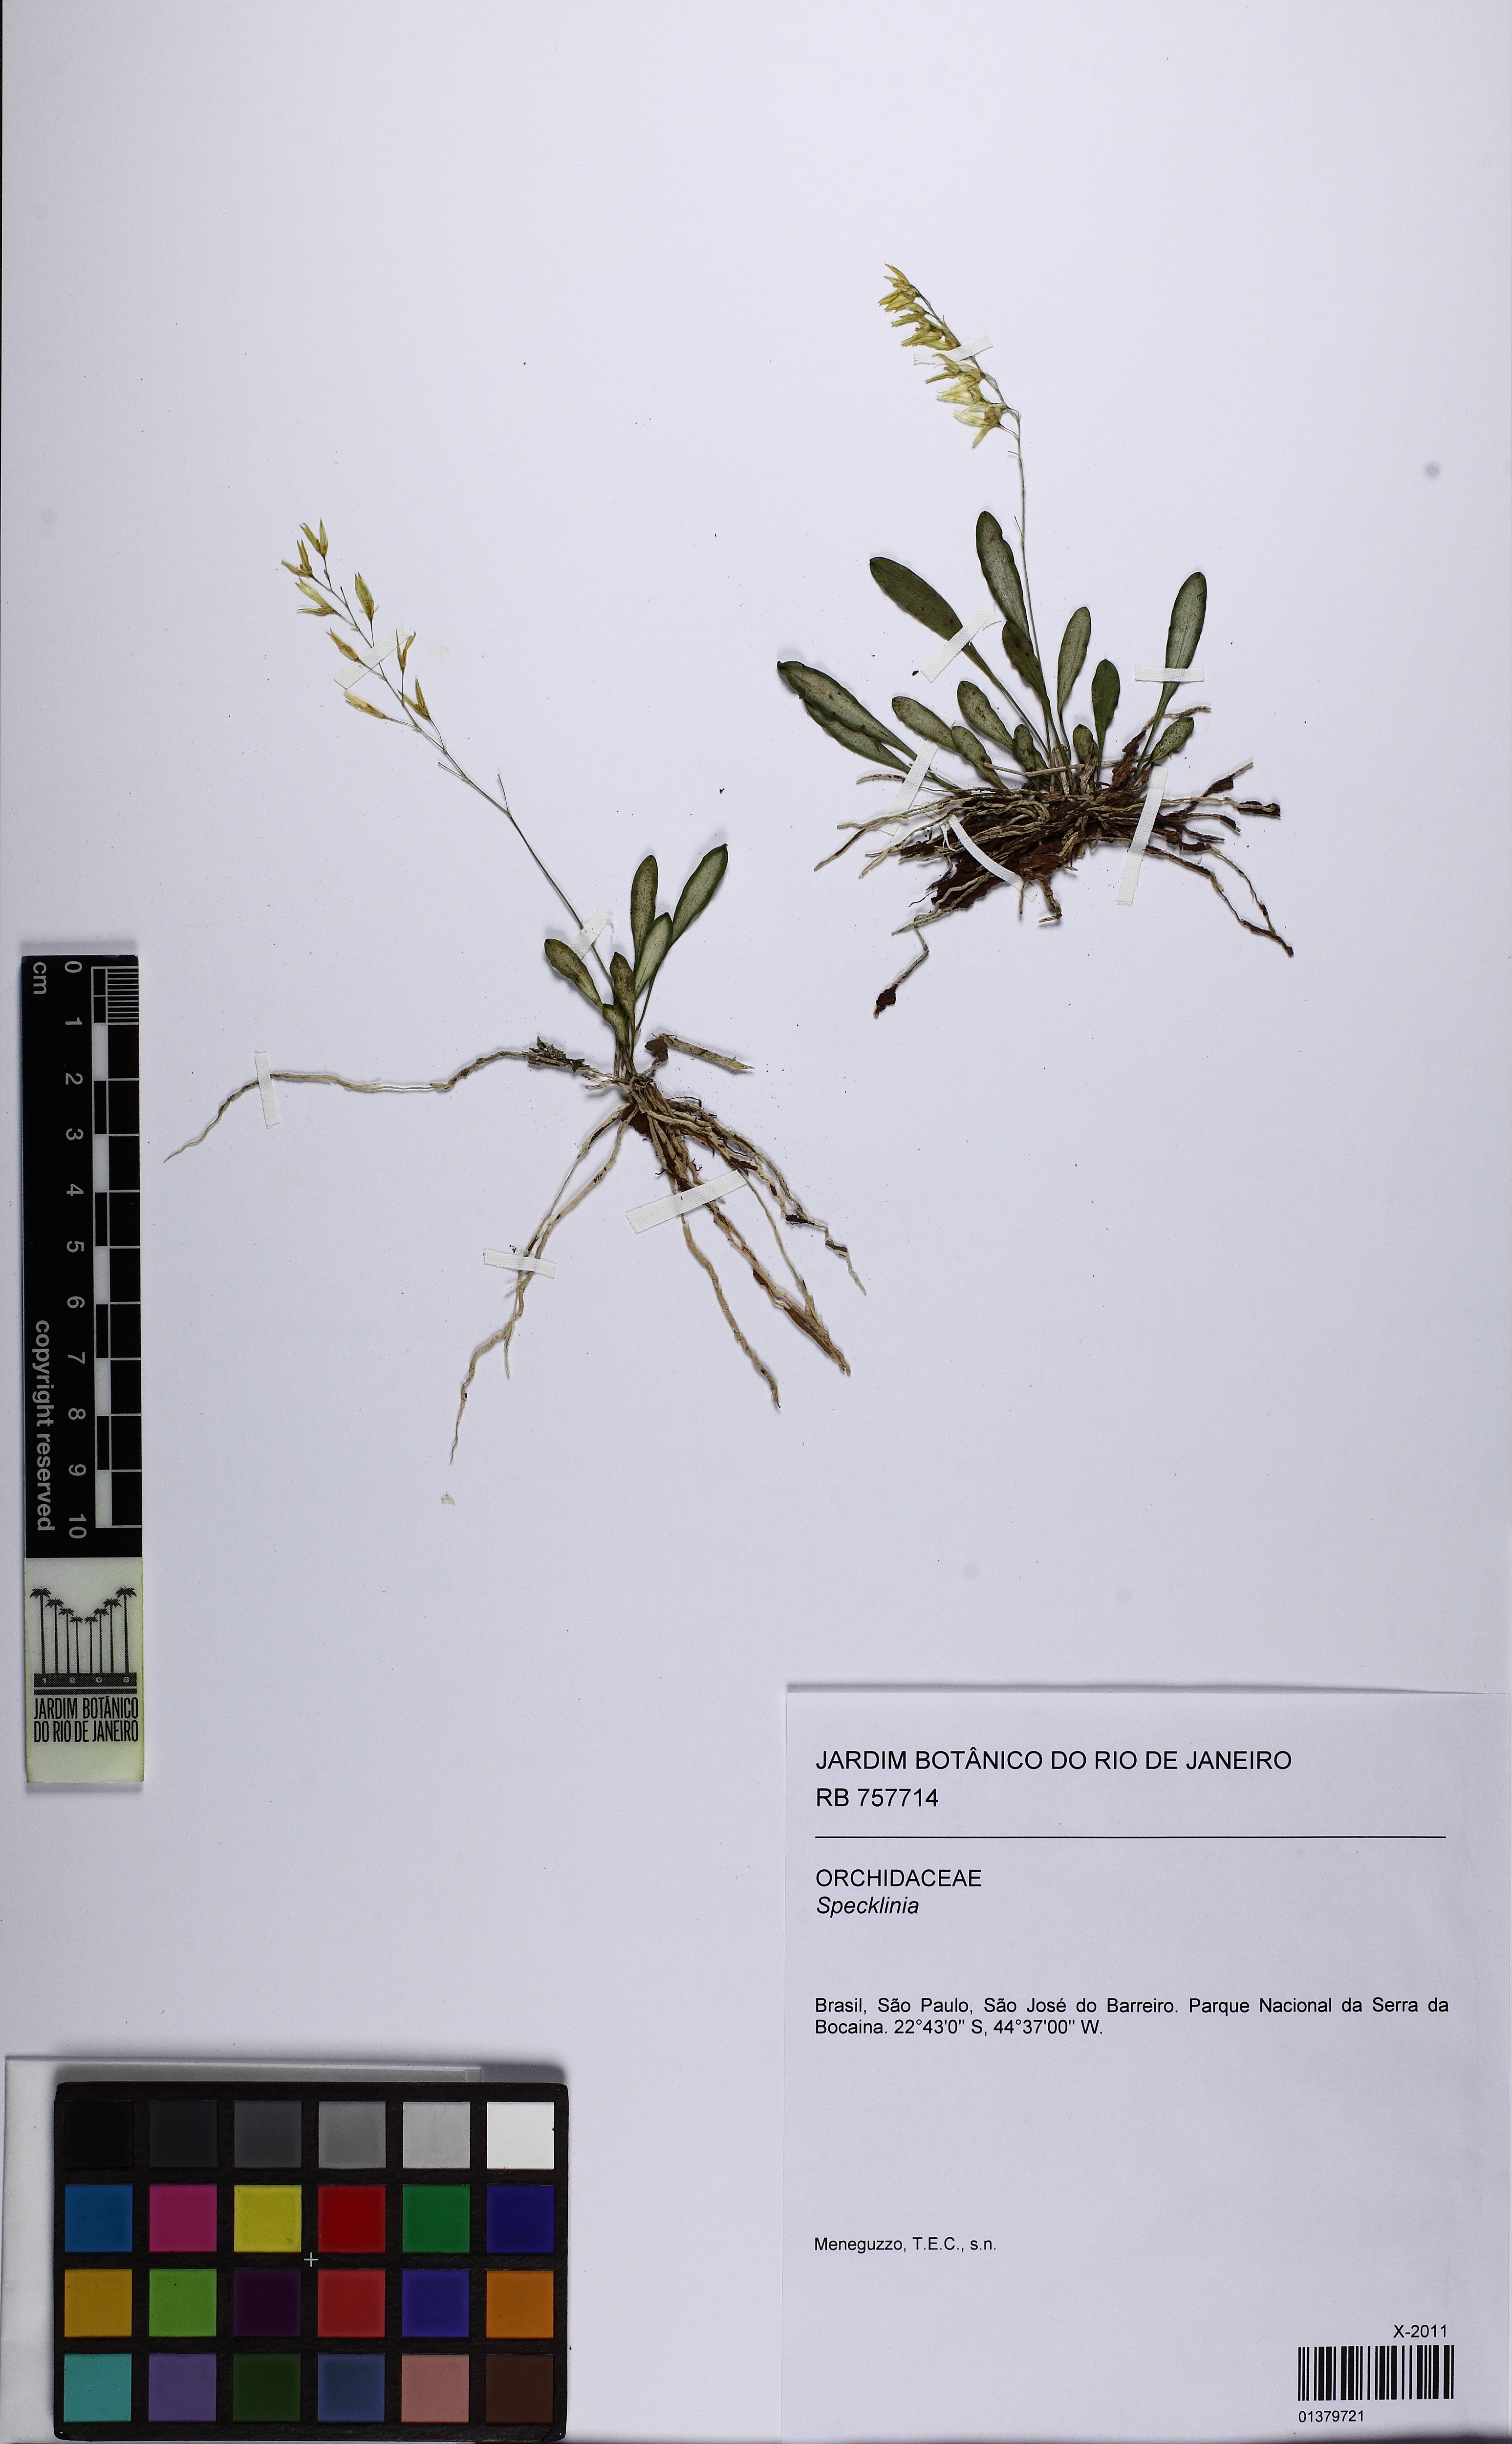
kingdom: Plantae
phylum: Tracheophyta
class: Liliopsida
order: Asparagales
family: Orchidaceae
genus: Specklinia
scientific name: Specklinia
